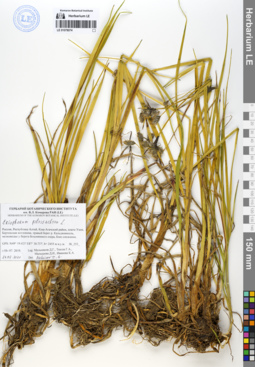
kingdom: Plantae
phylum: Tracheophyta
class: Liliopsida
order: Poales
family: Cyperaceae
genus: Eriophorum
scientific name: Eriophorum angustifolium
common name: Common cottongrass
